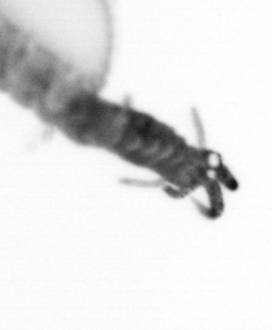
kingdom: Animalia
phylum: Annelida
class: Polychaeta
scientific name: Polychaeta
